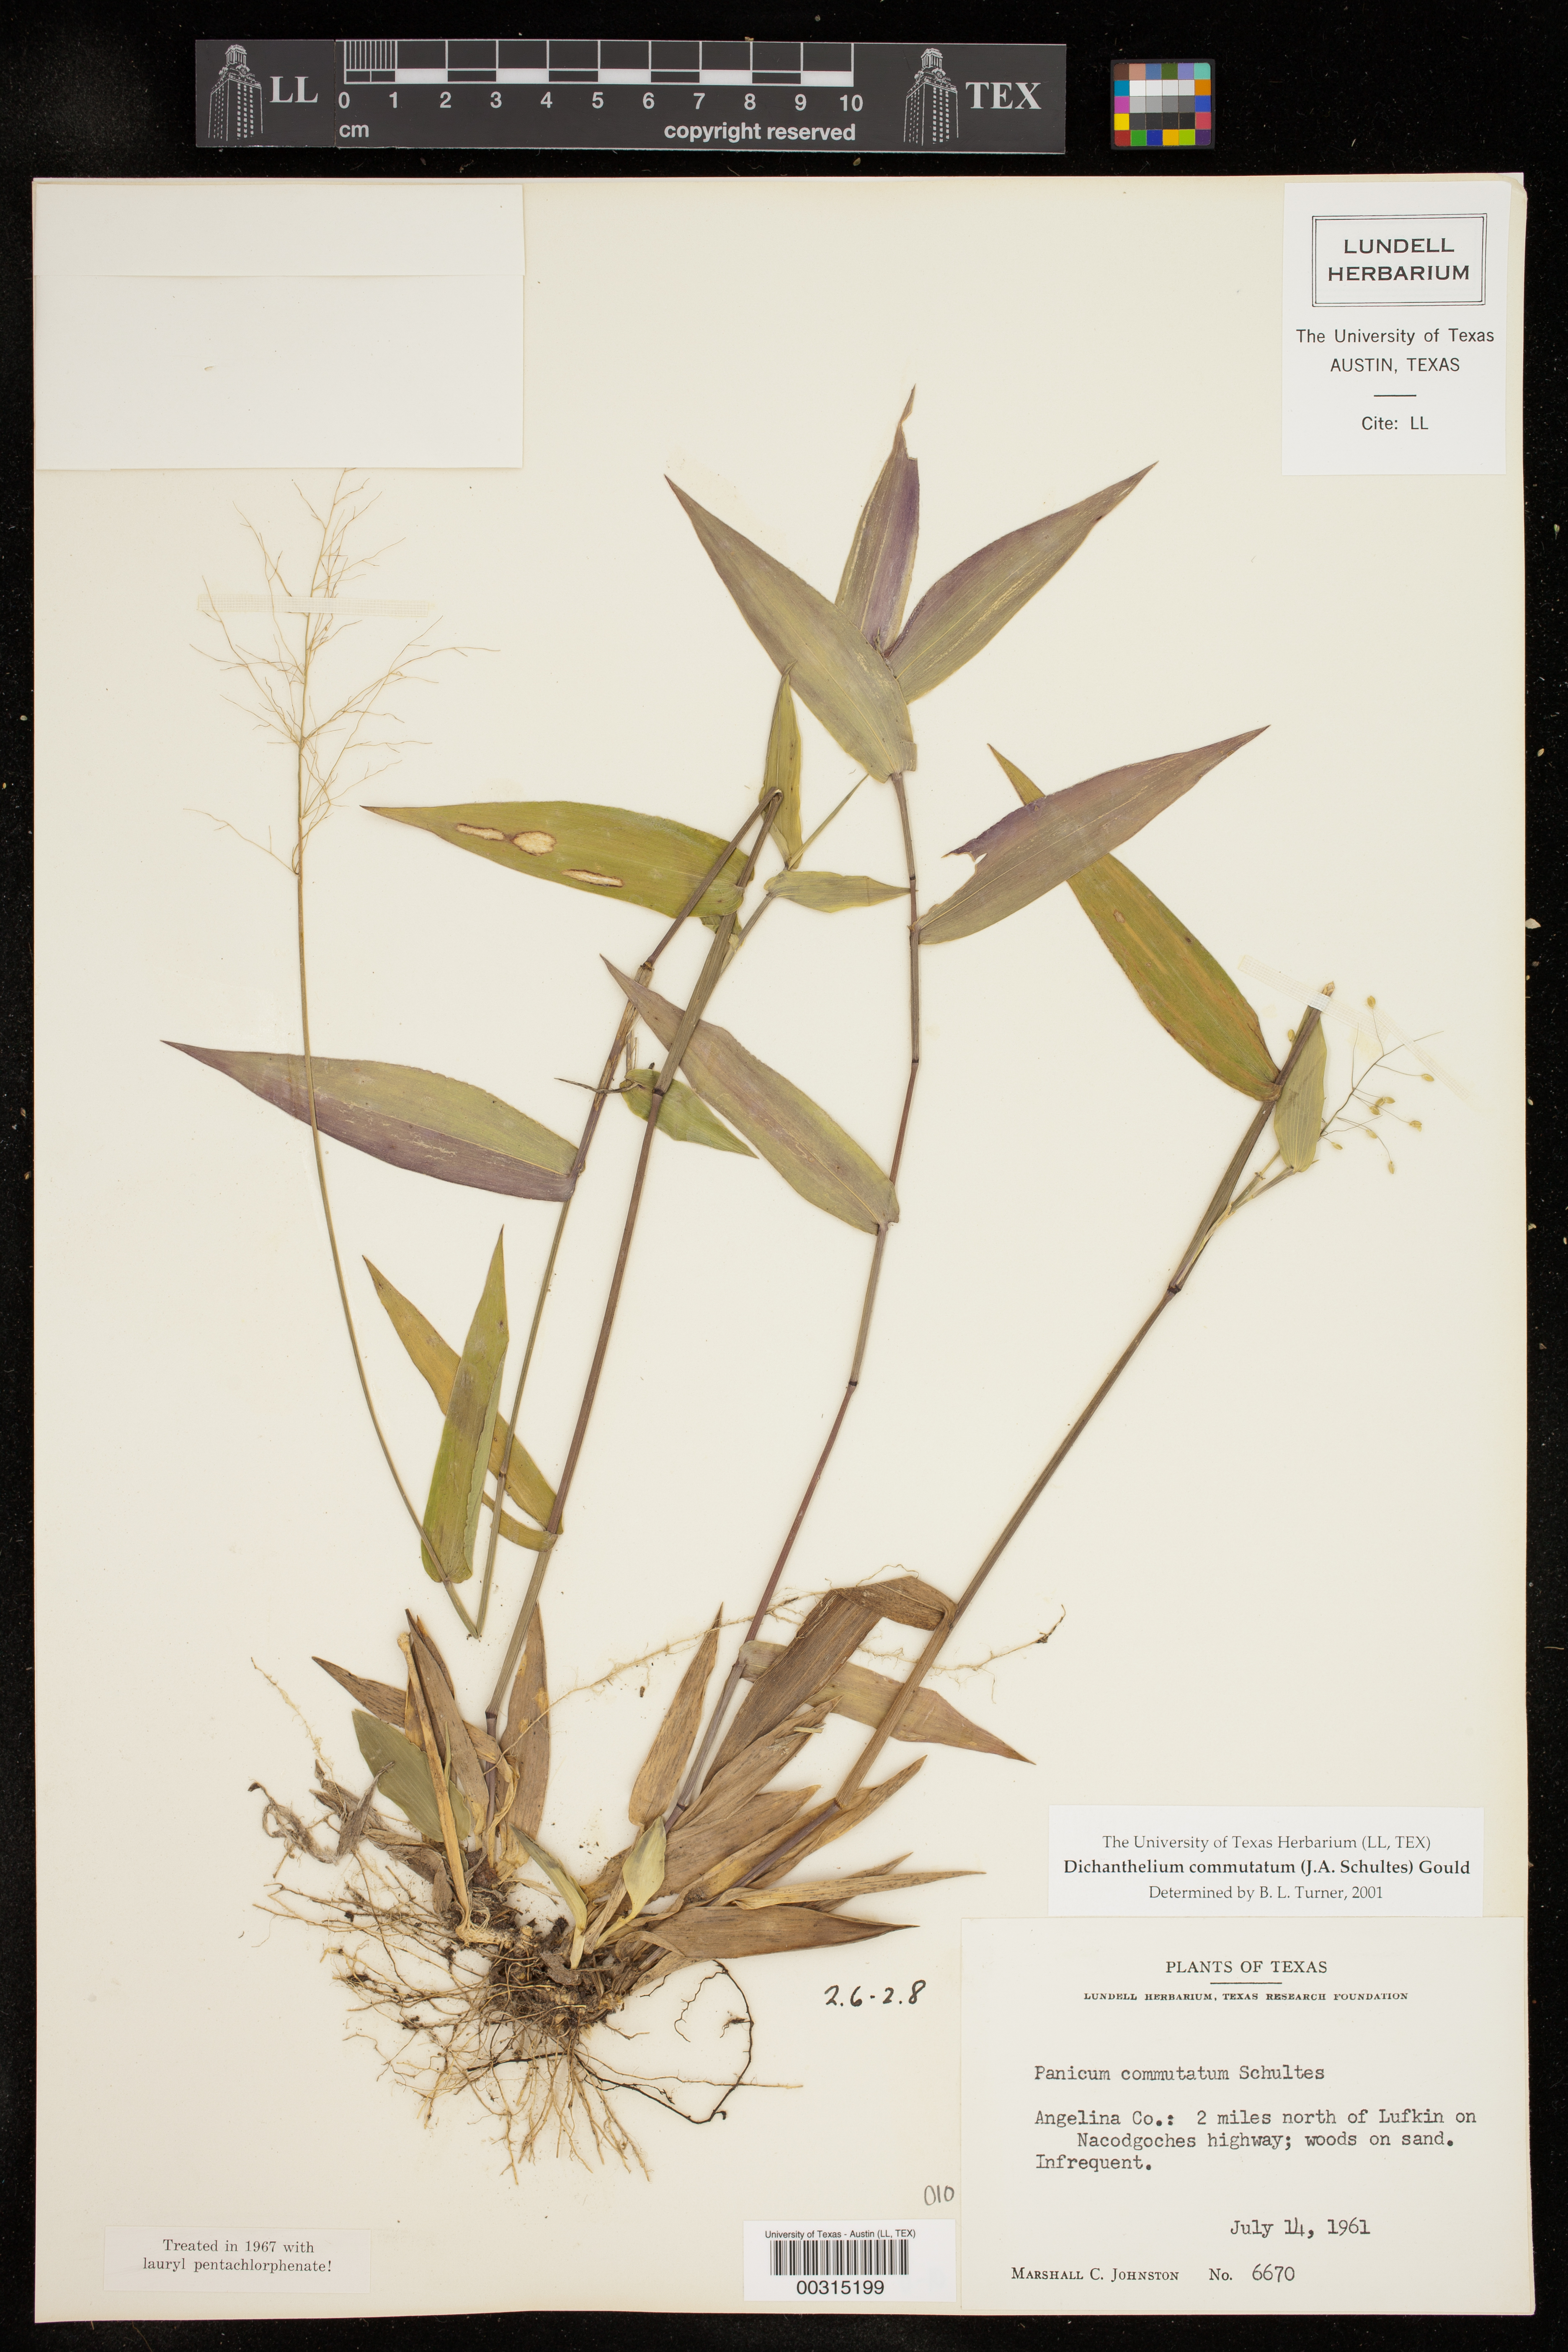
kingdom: Plantae
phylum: Tracheophyta
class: Liliopsida
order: Poales
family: Poaceae
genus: Dichanthelium
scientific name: Dichanthelium commutatum
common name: Variable witchgrass
